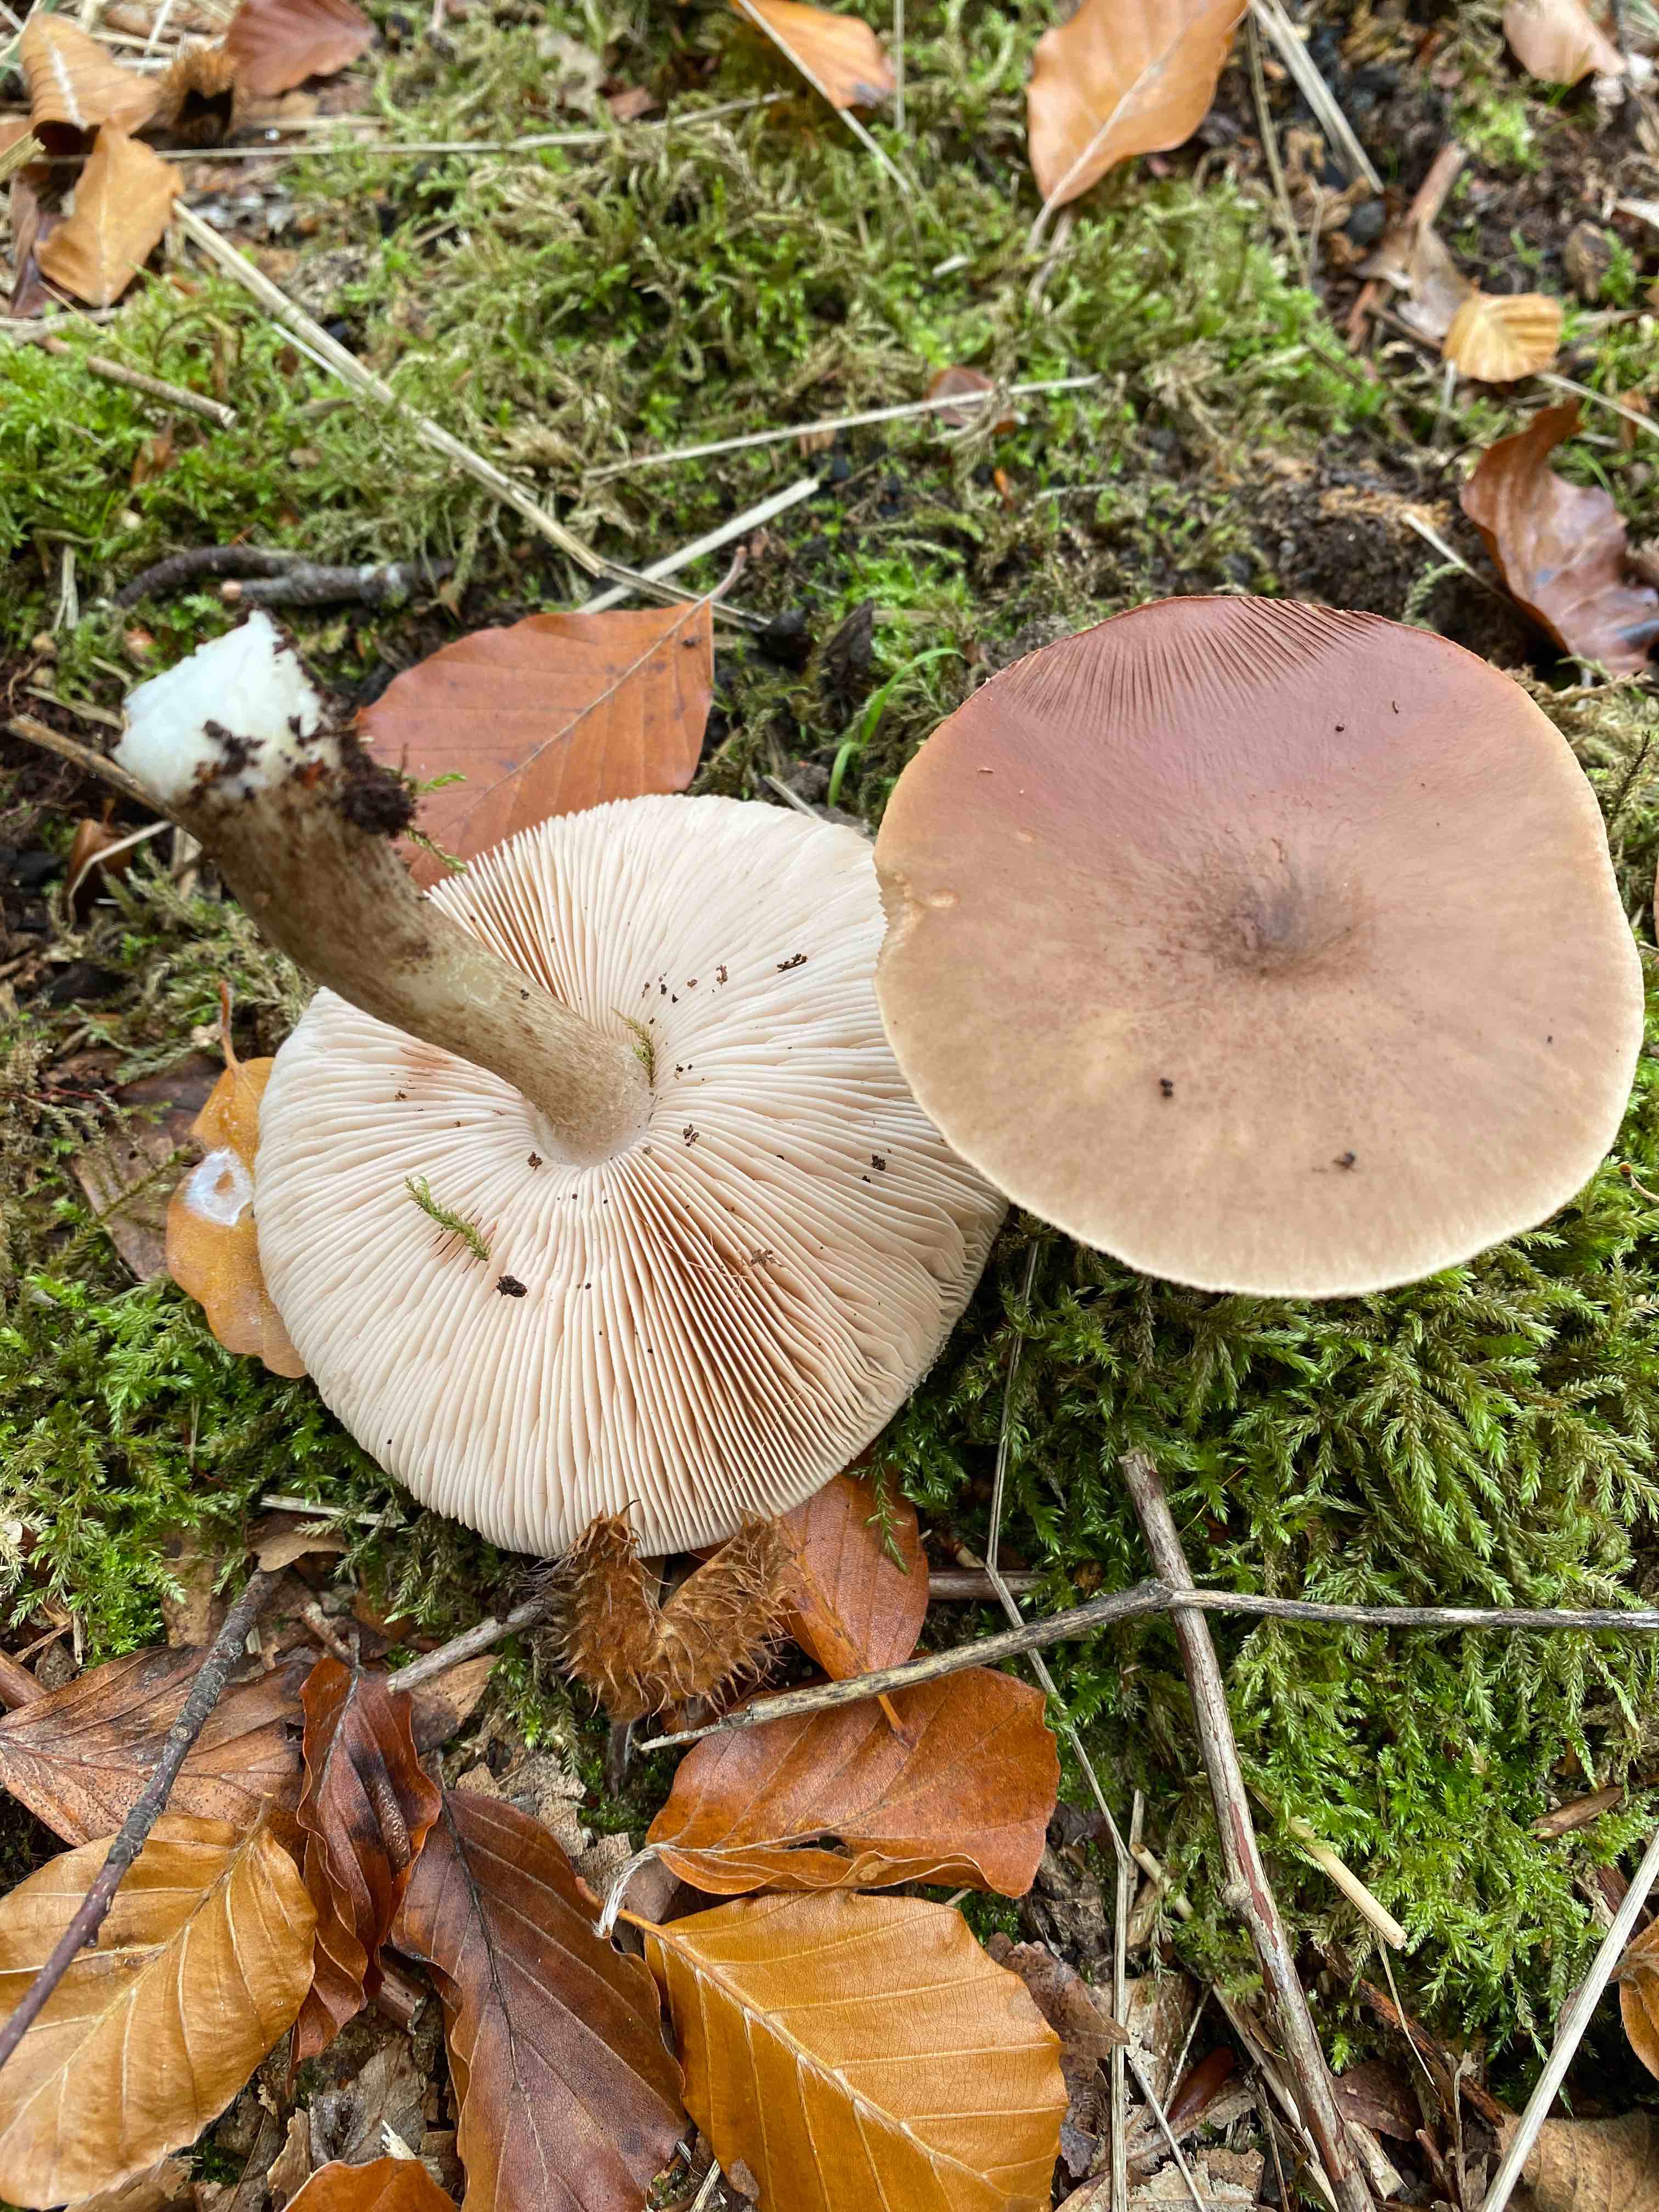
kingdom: Fungi
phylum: Basidiomycota
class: Agaricomycetes
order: Agaricales
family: Pluteaceae
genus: Pluteus
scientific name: Pluteus cervinus
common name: sodfarvet skærmhat
